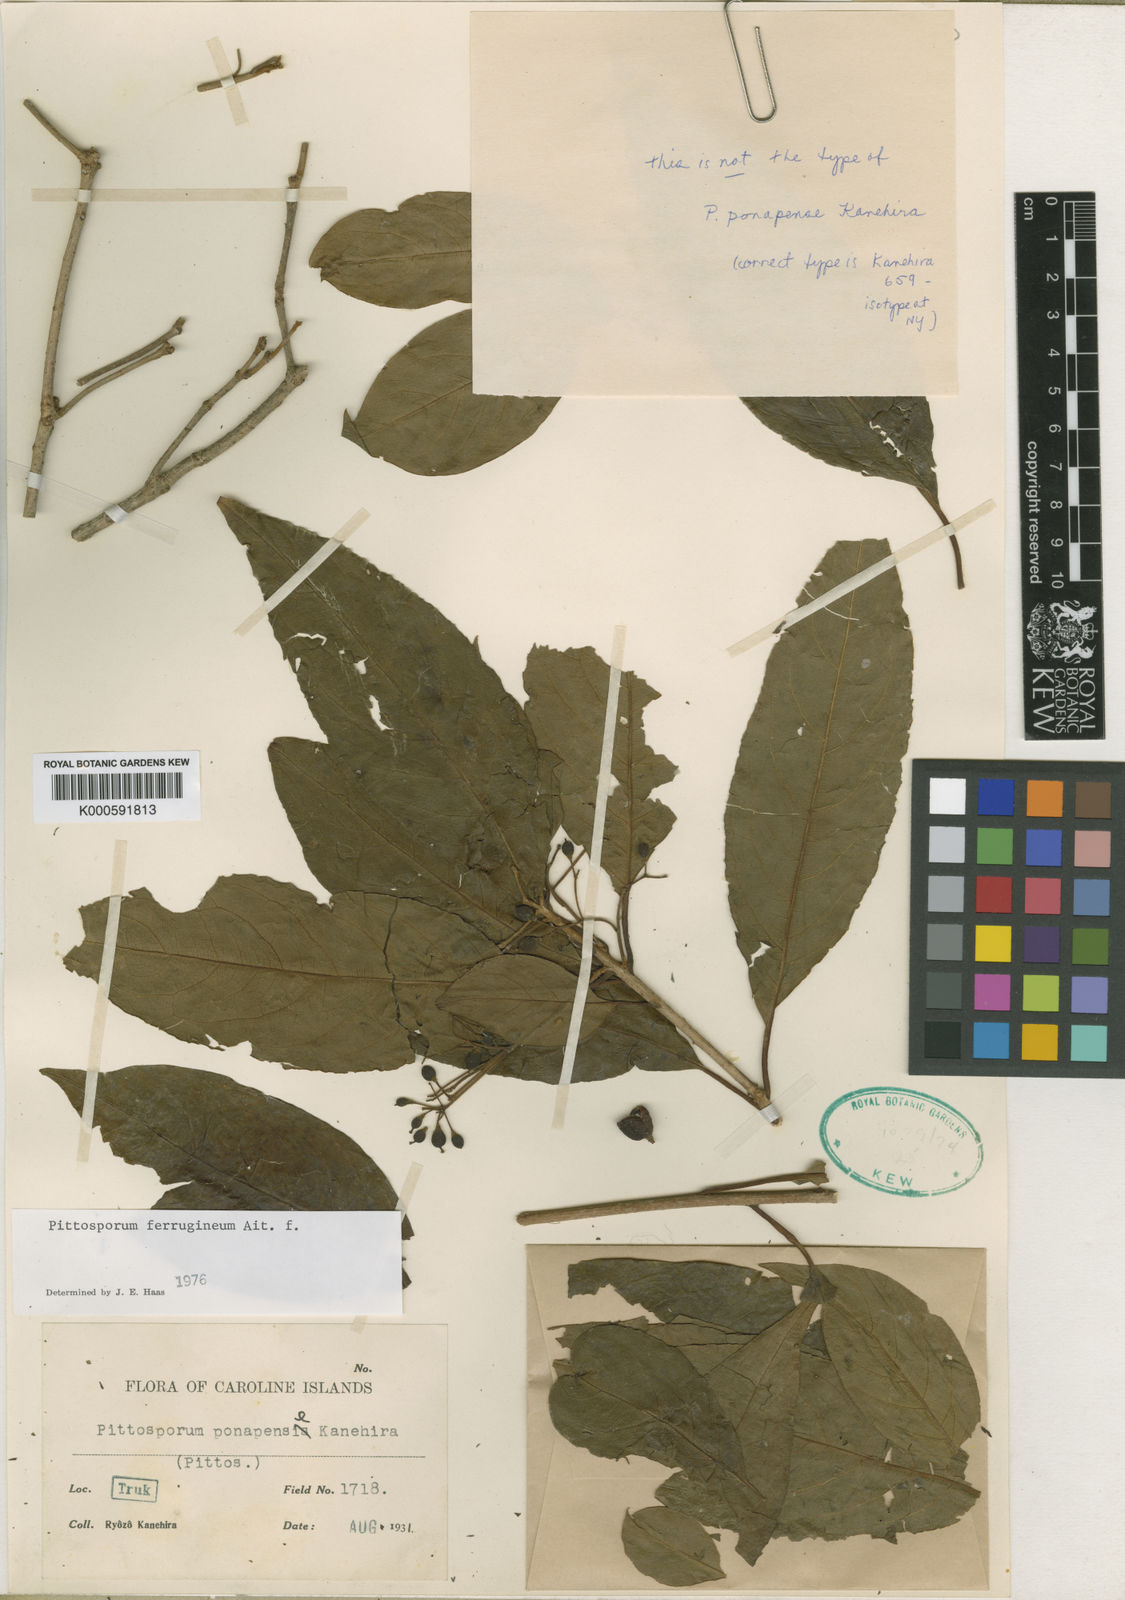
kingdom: Plantae
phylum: Tracheophyta
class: Magnoliopsida
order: Apiales
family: Pittosporaceae
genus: Pittosporum
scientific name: Pittosporum ferrugineum
